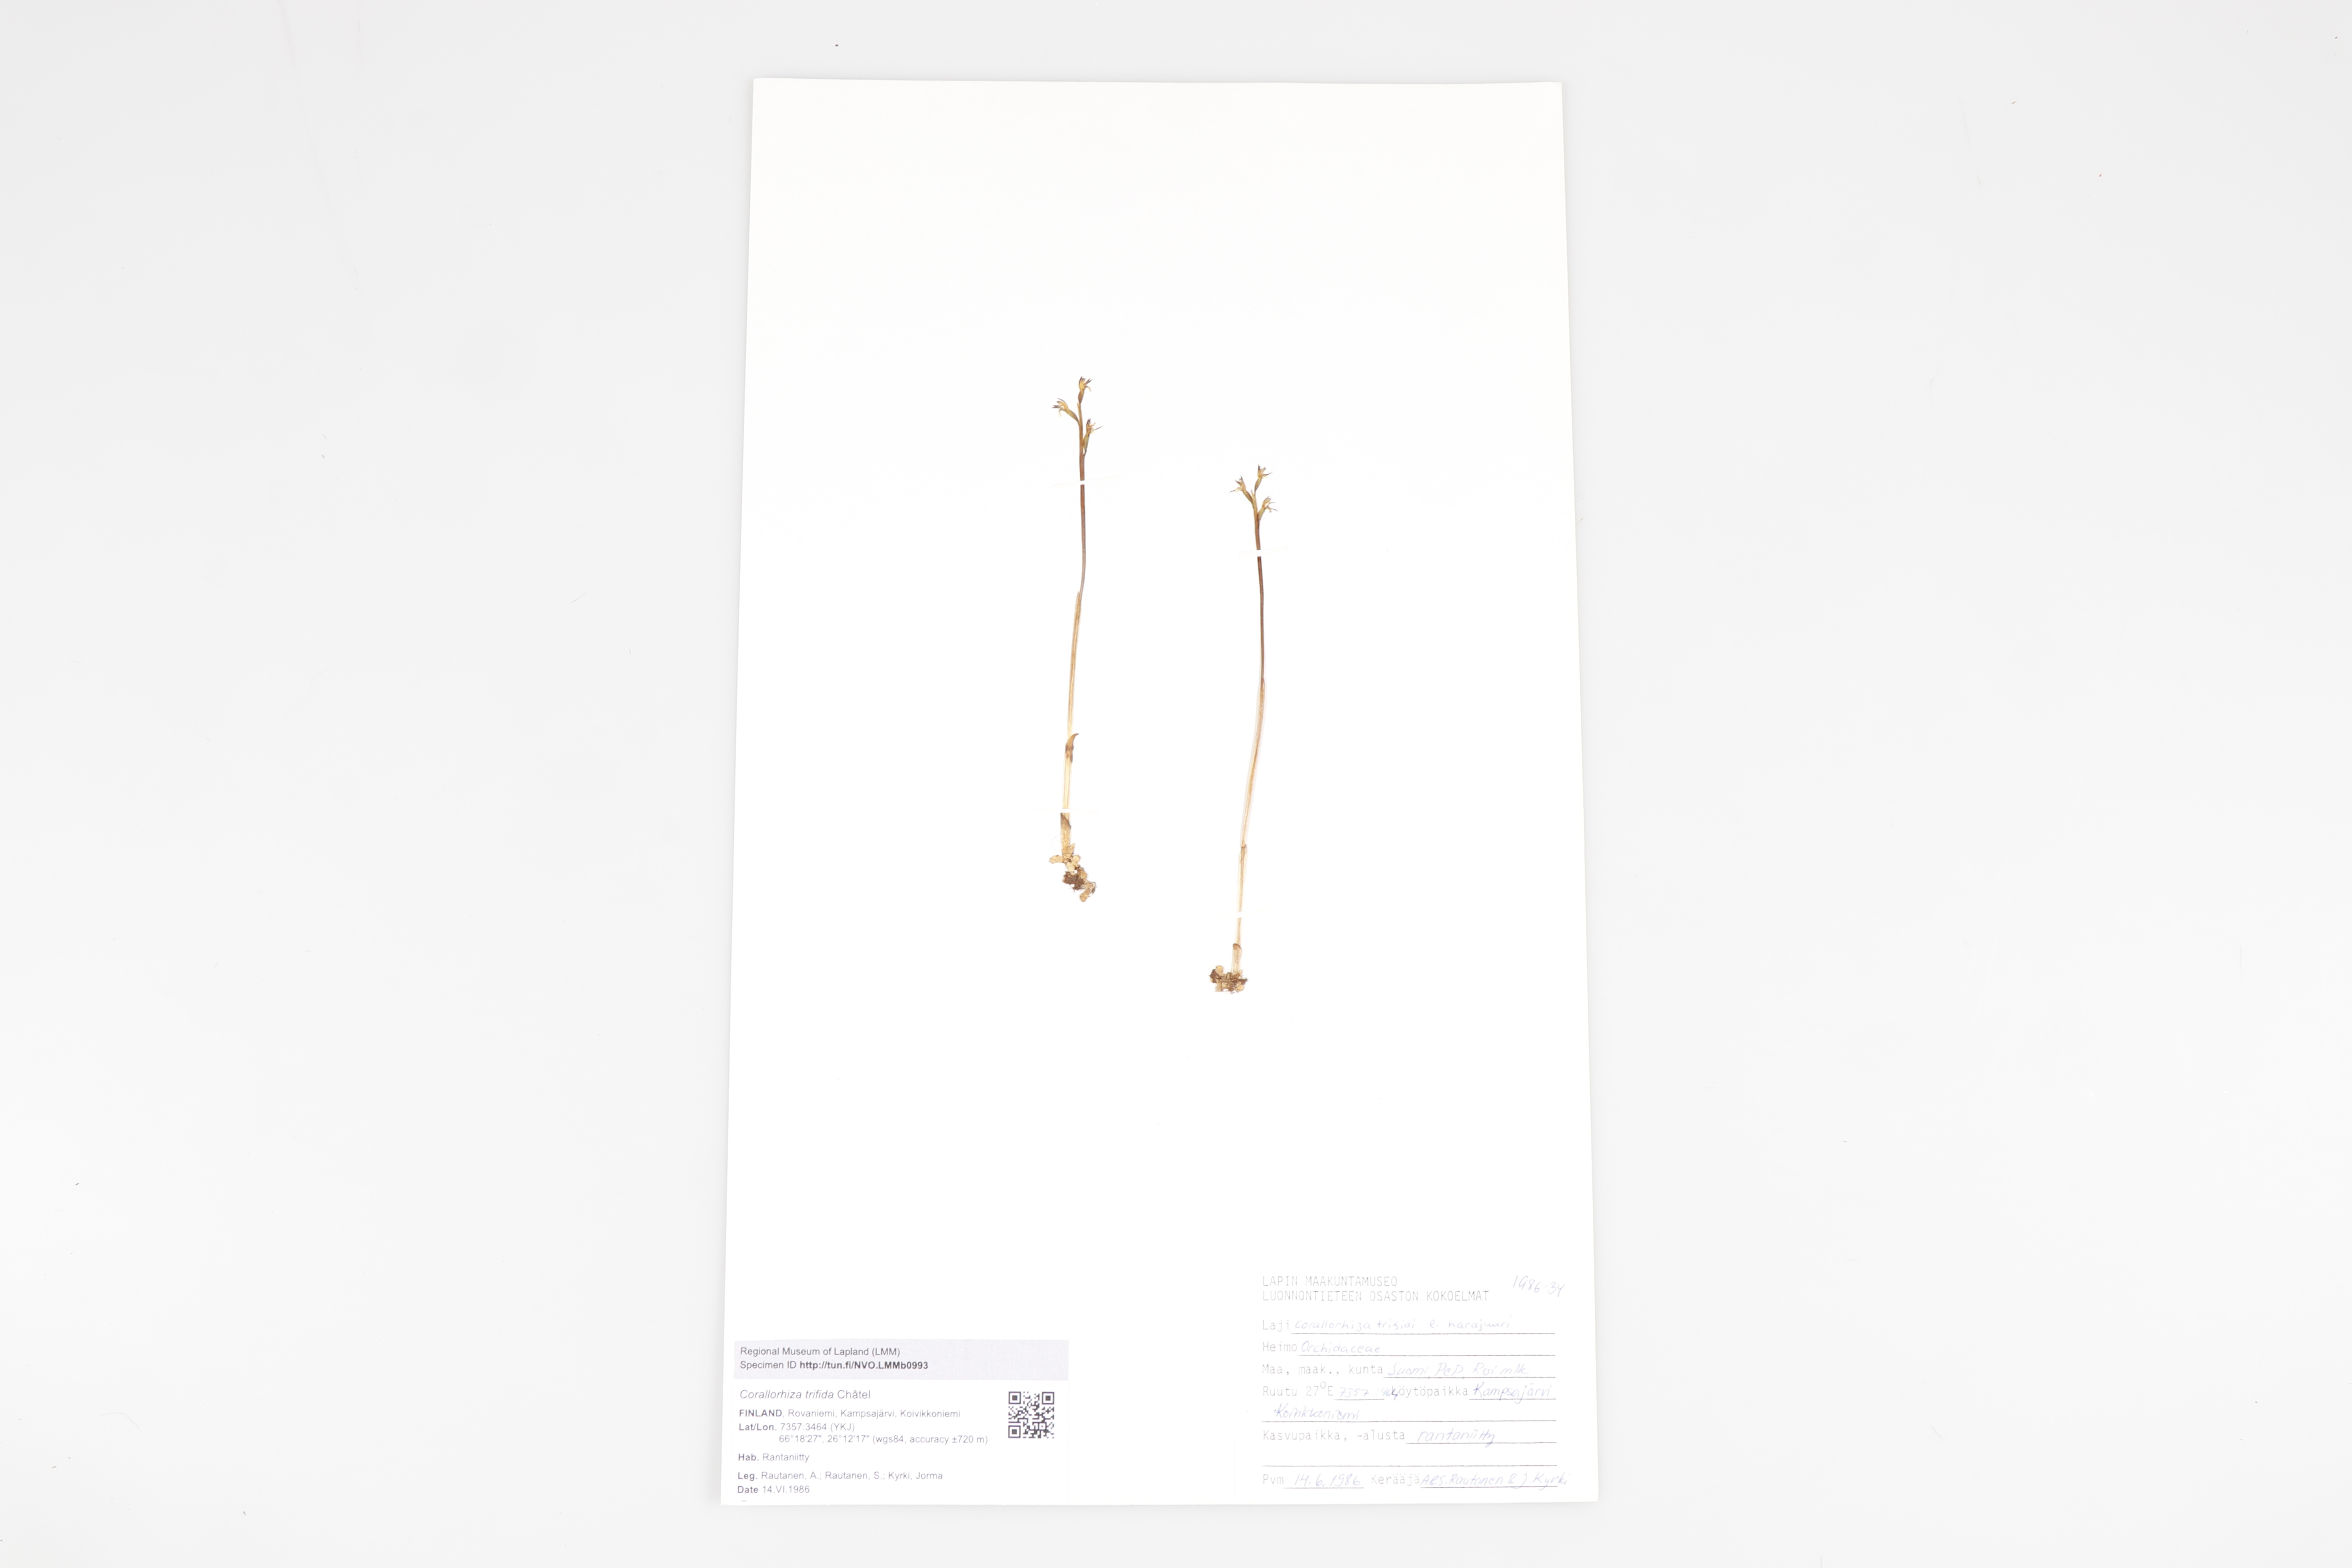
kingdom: Plantae
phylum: Tracheophyta
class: Liliopsida
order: Asparagales
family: Orchidaceae
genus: Corallorhiza
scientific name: Corallorhiza trifida
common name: Yellow coralroot
